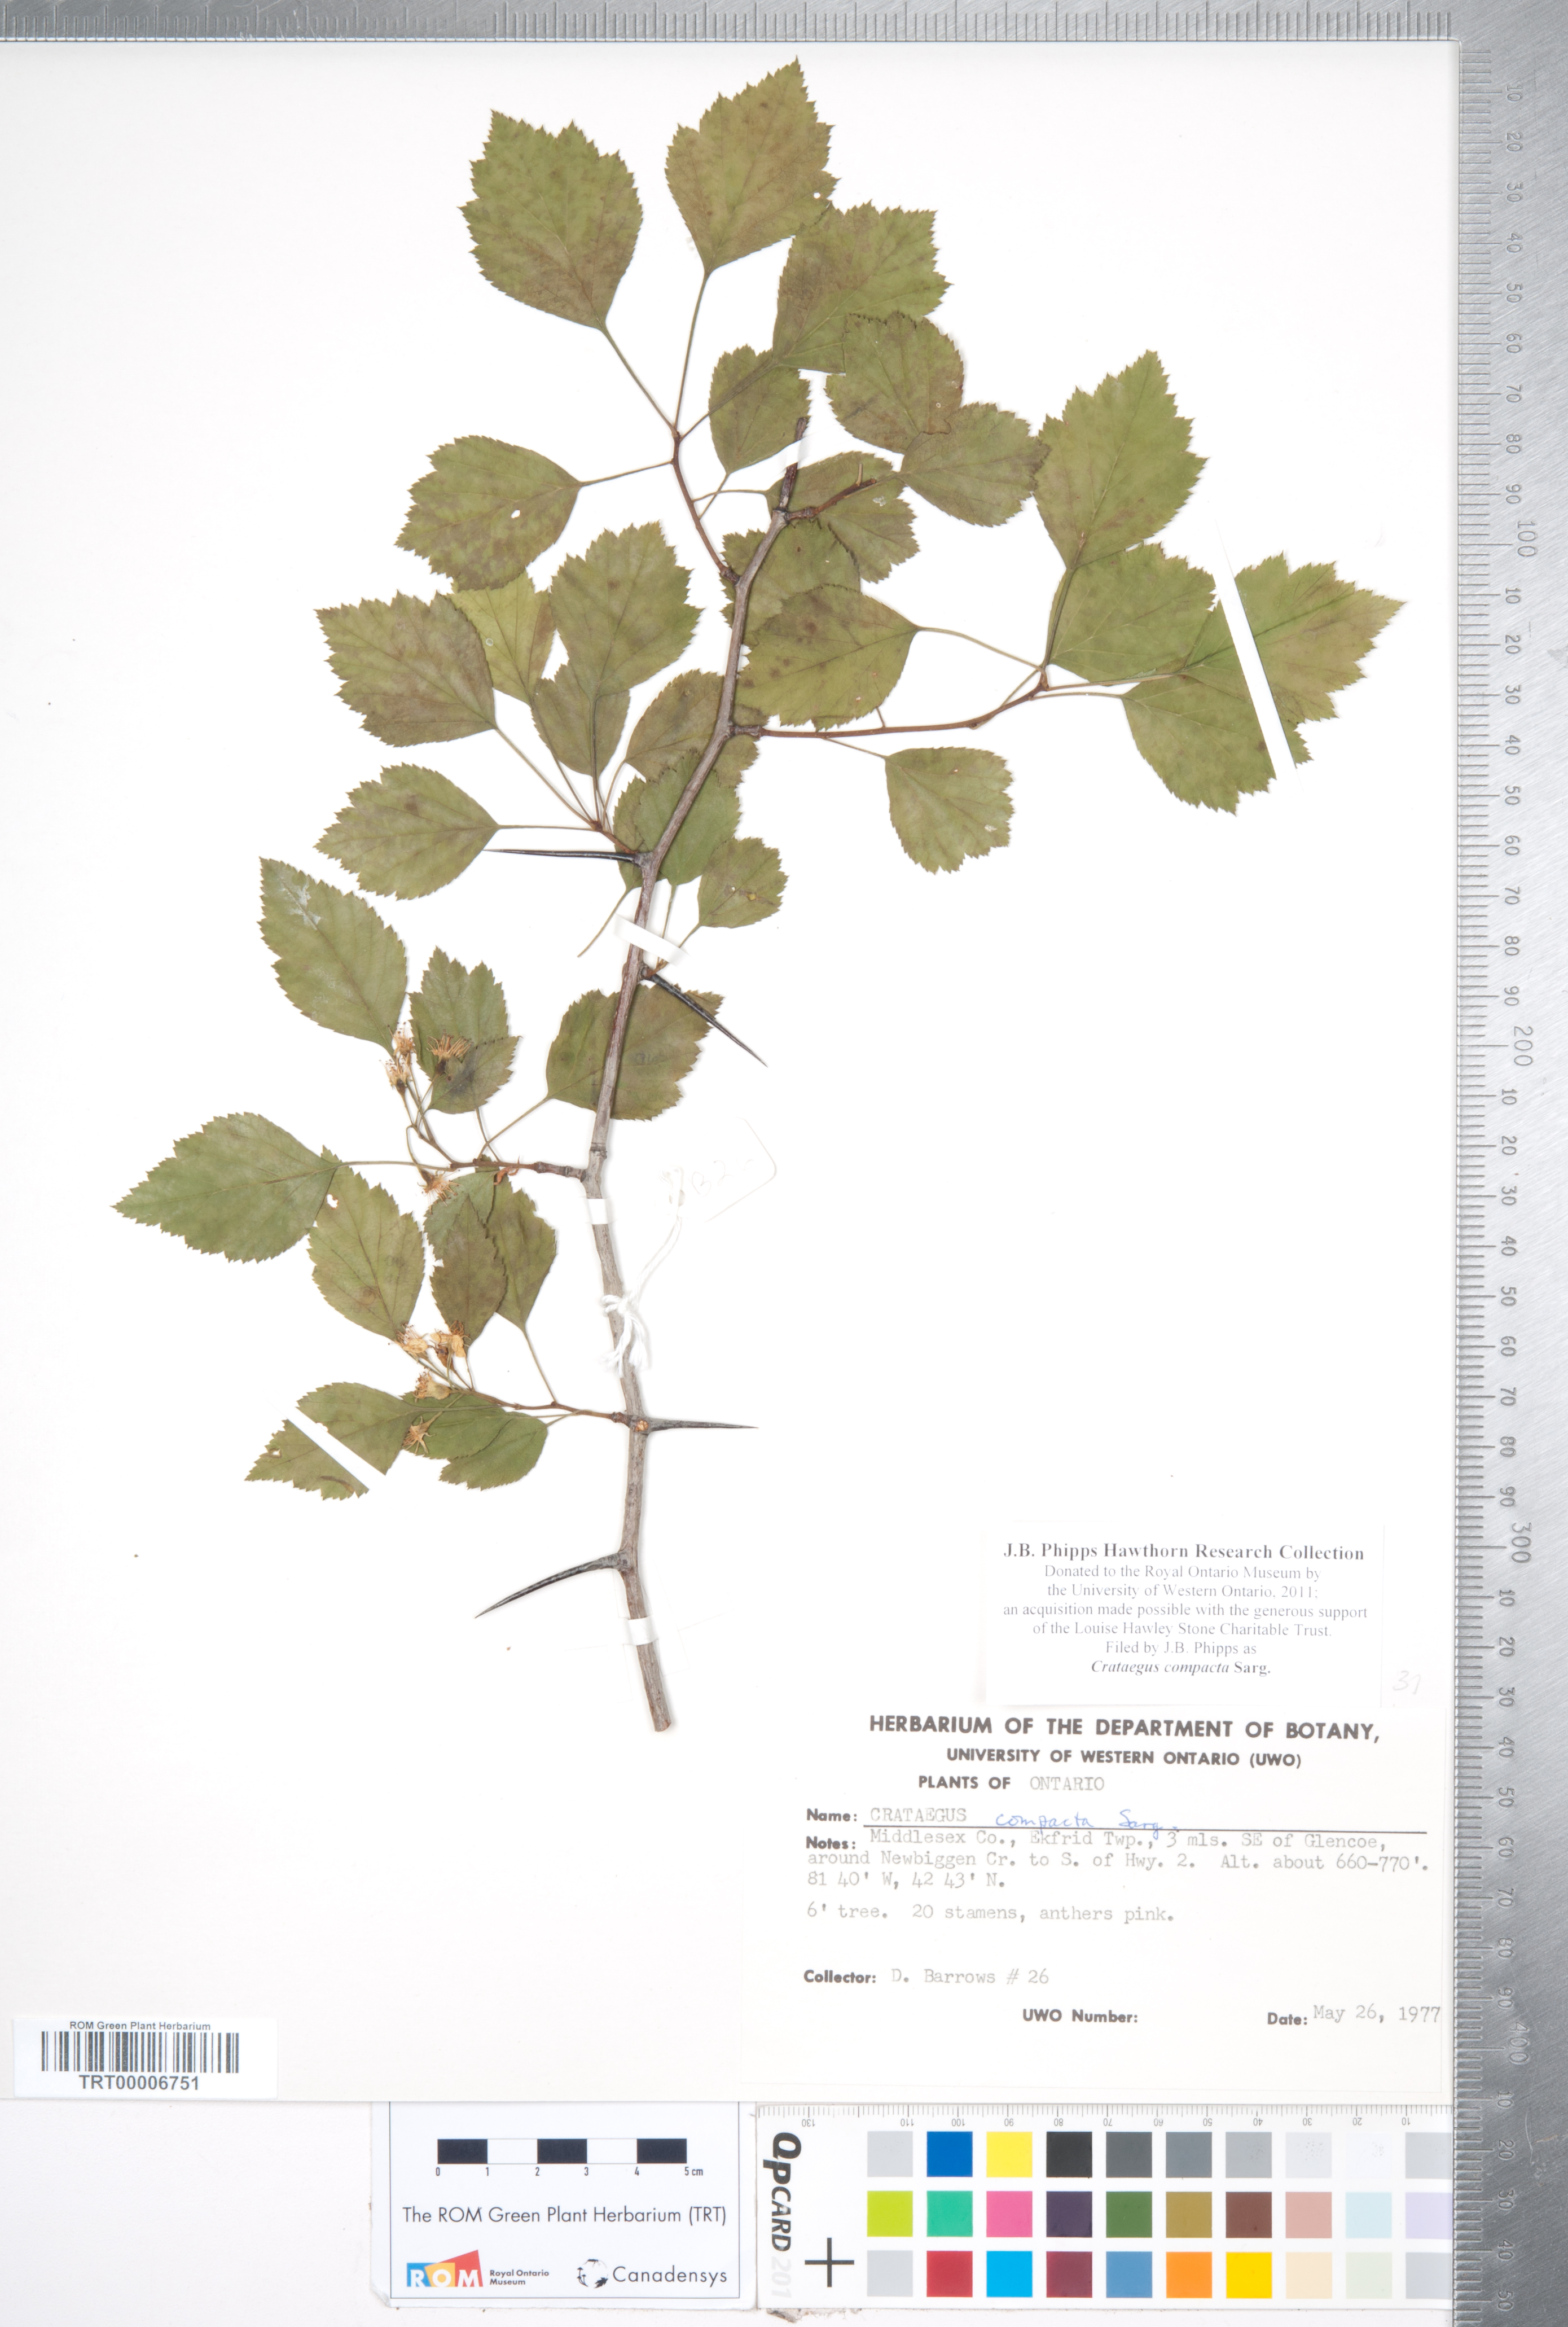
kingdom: Plantae
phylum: Tracheophyta
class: Magnoliopsida
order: Rosales
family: Rosaceae
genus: Crataegus
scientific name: Crataegus compacta
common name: Clustered hawthorn
